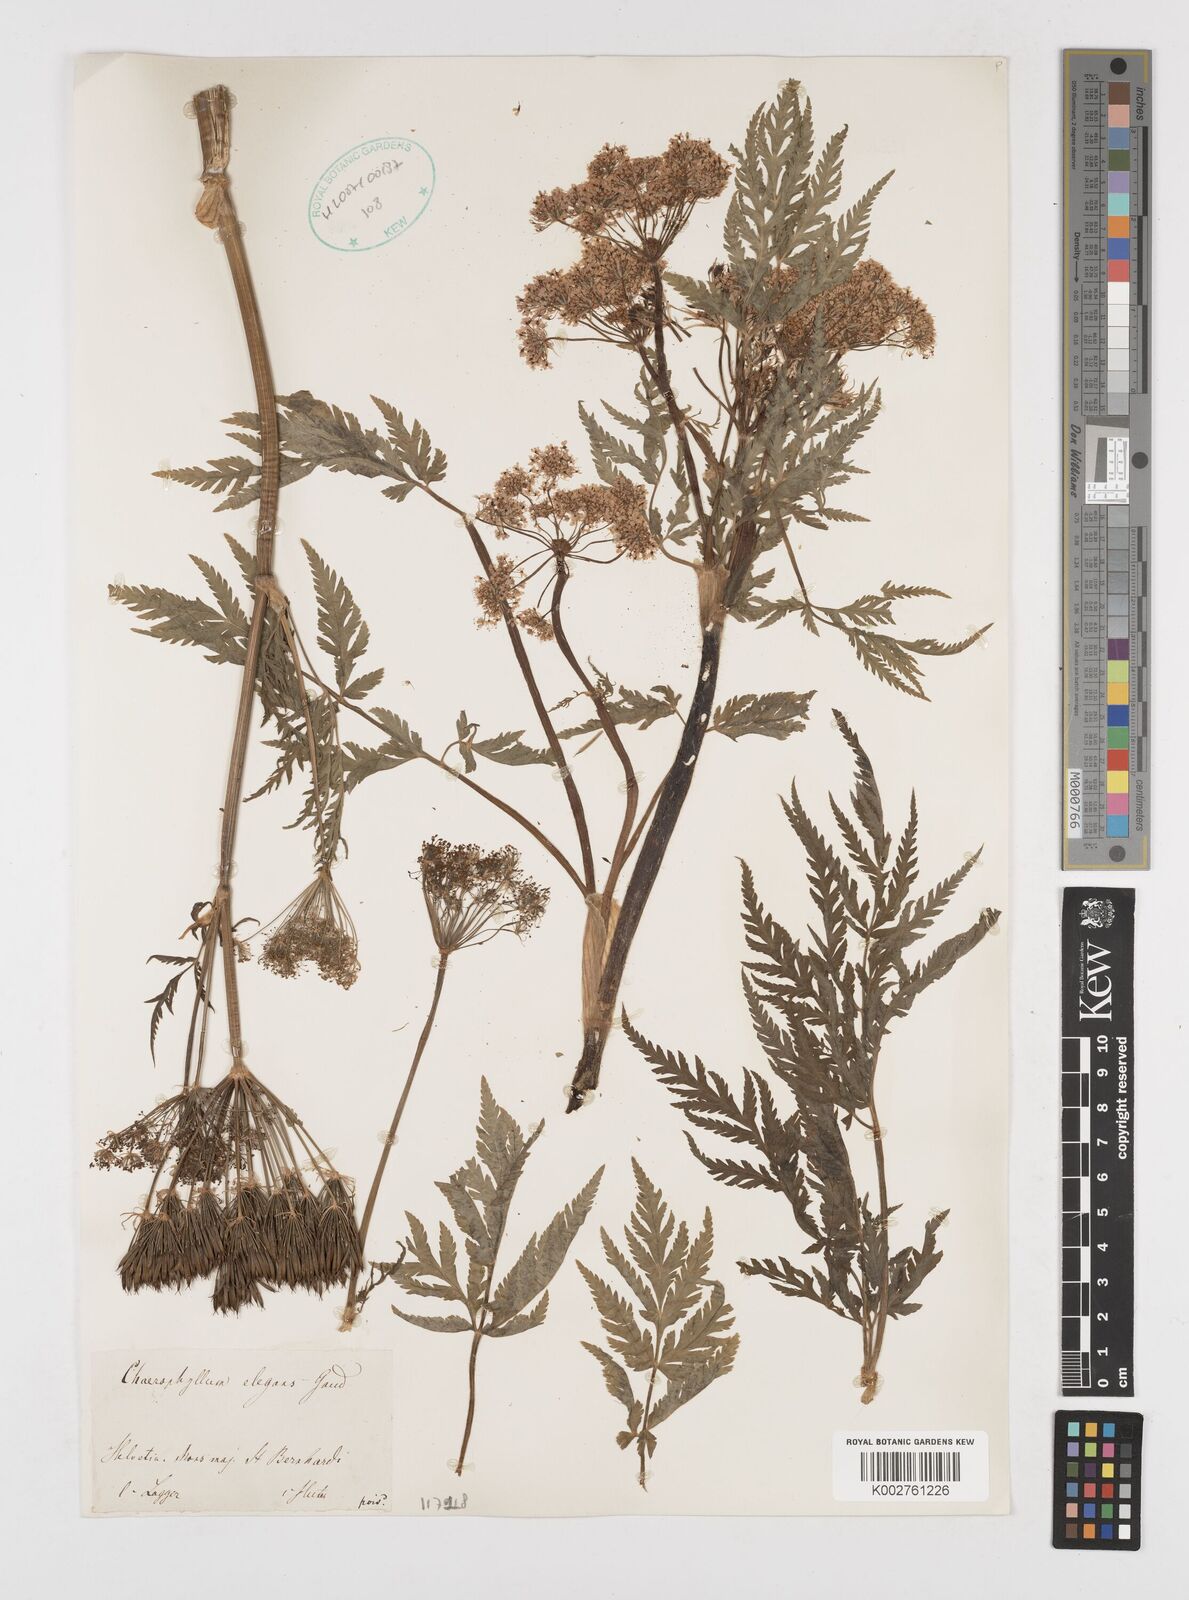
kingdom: Plantae
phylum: Tracheophyta
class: Magnoliopsida
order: Apiales
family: Apiaceae
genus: Chaerophyllum
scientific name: Chaerophyllum elegans
